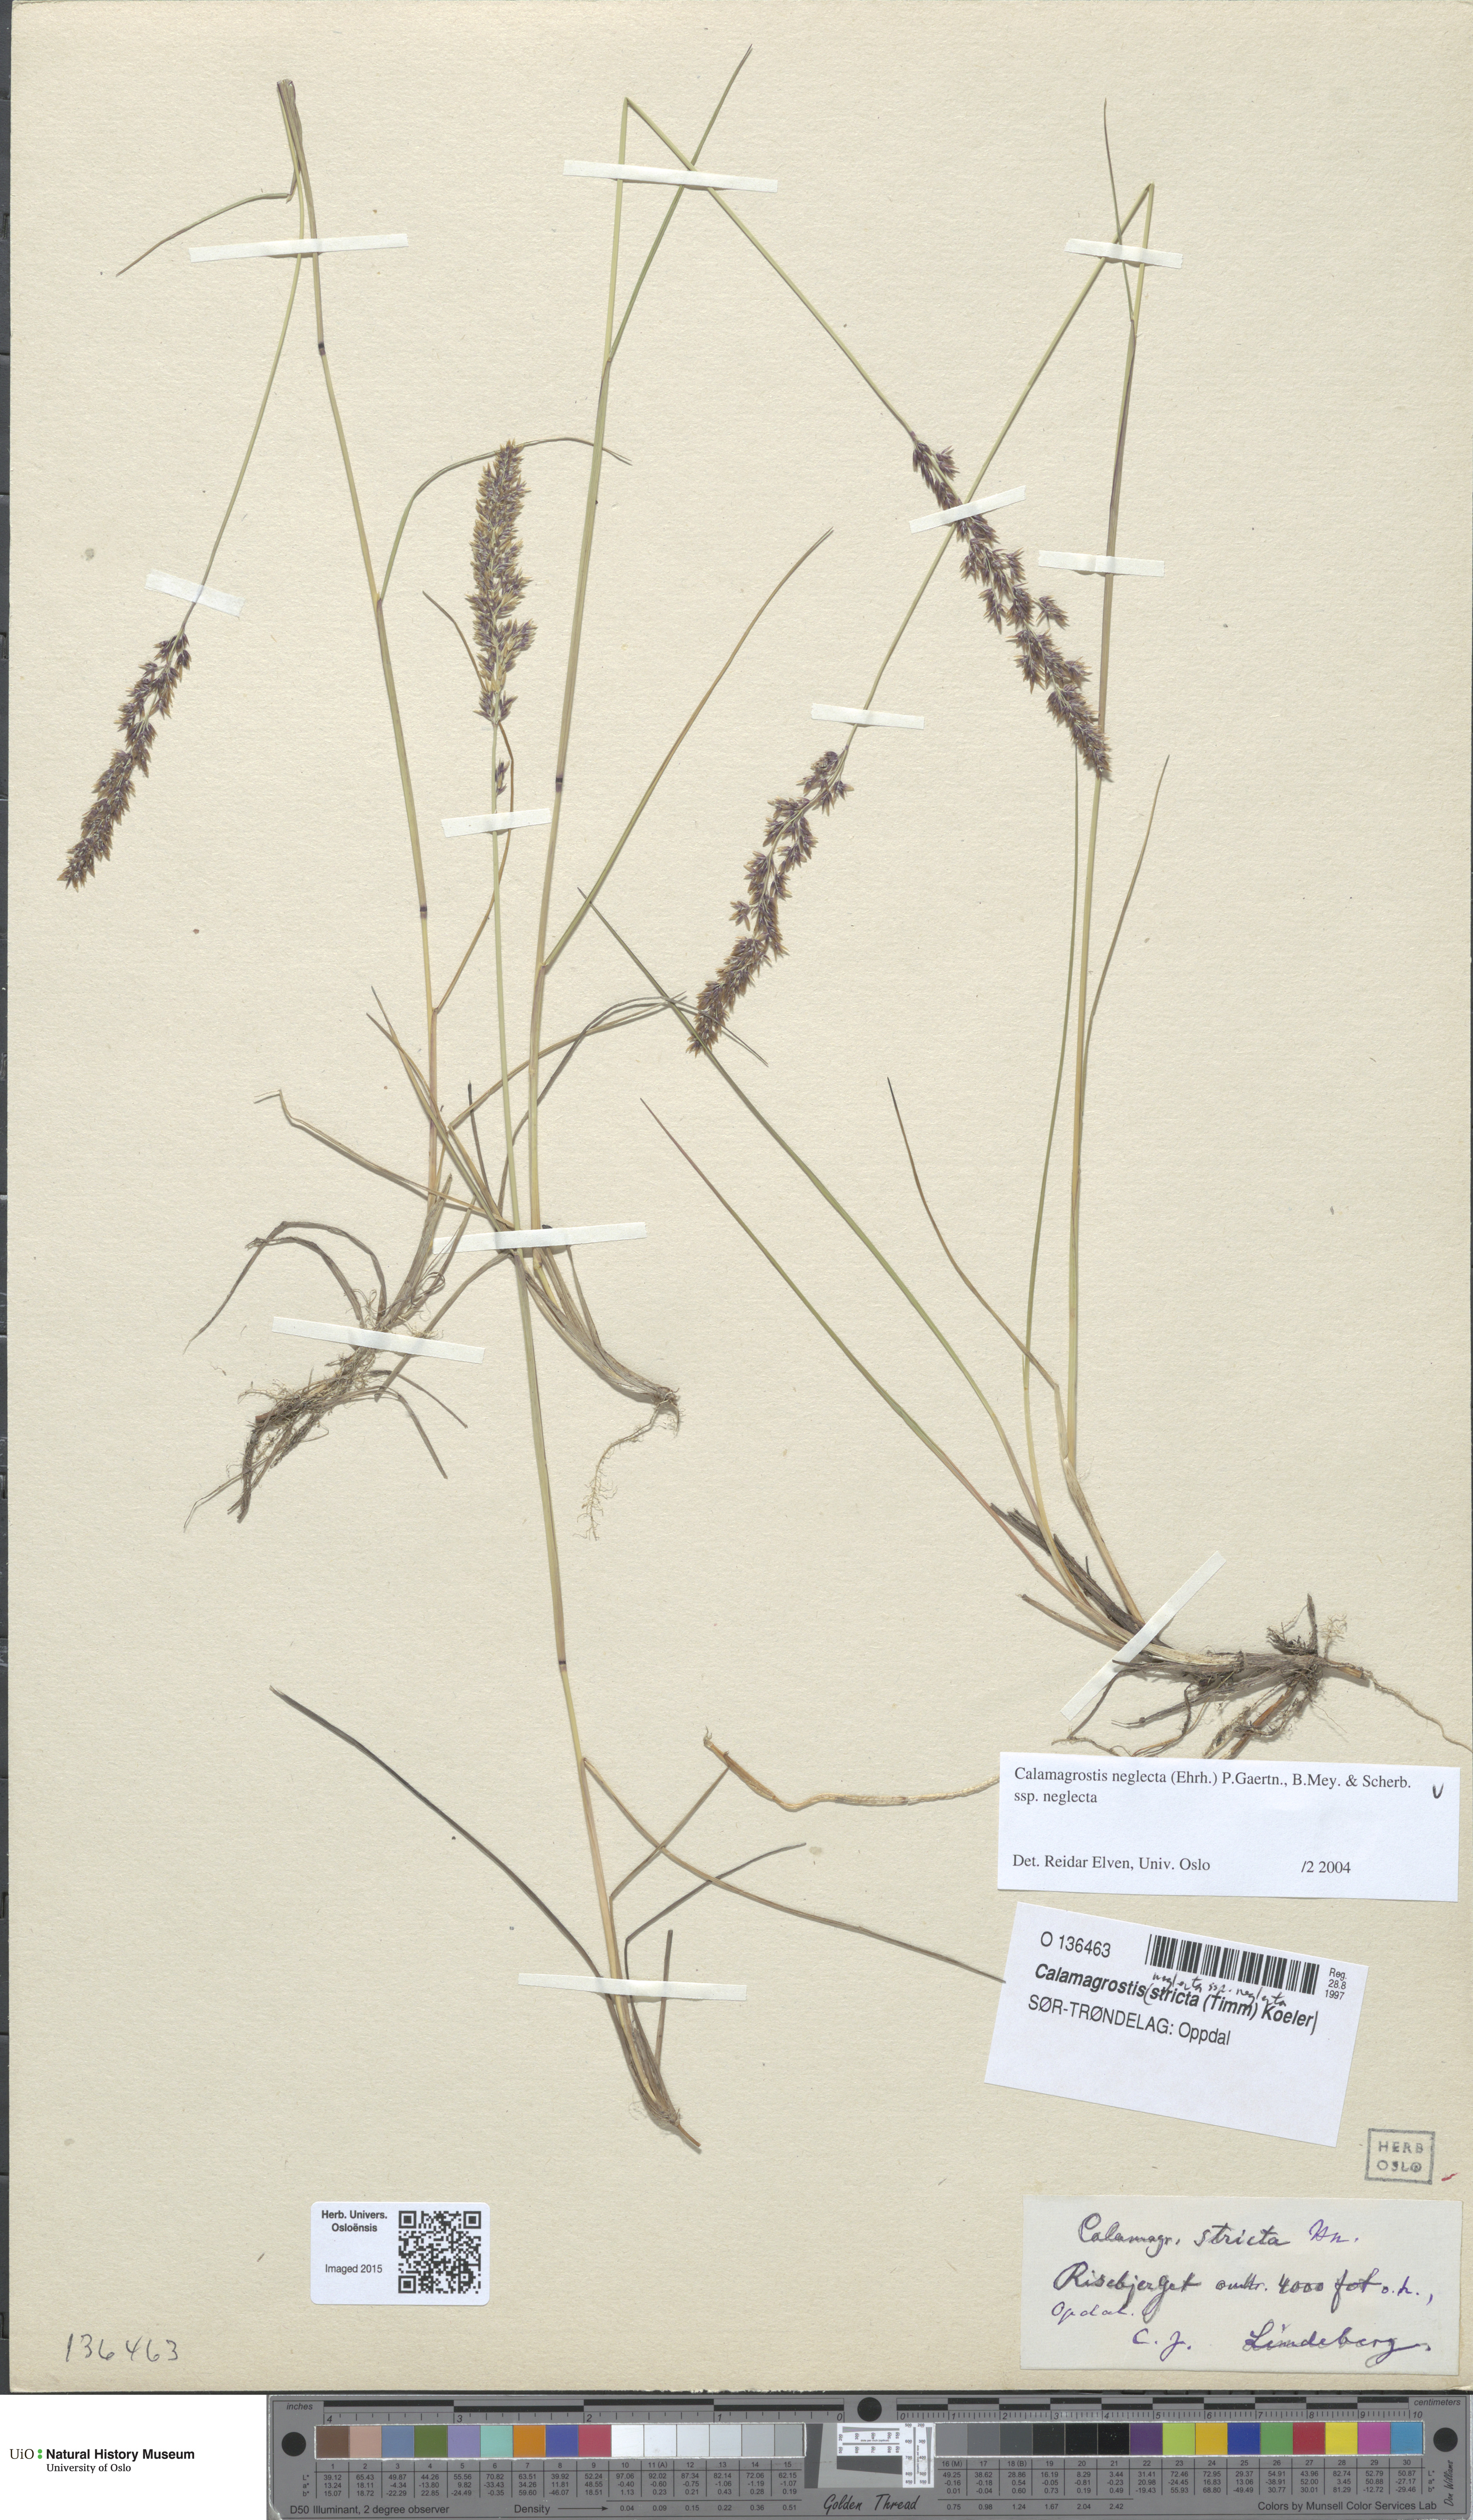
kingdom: Plantae
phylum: Tracheophyta
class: Liliopsida
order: Poales
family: Poaceae
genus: Achnatherum
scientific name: Achnatherum calamagrostis
